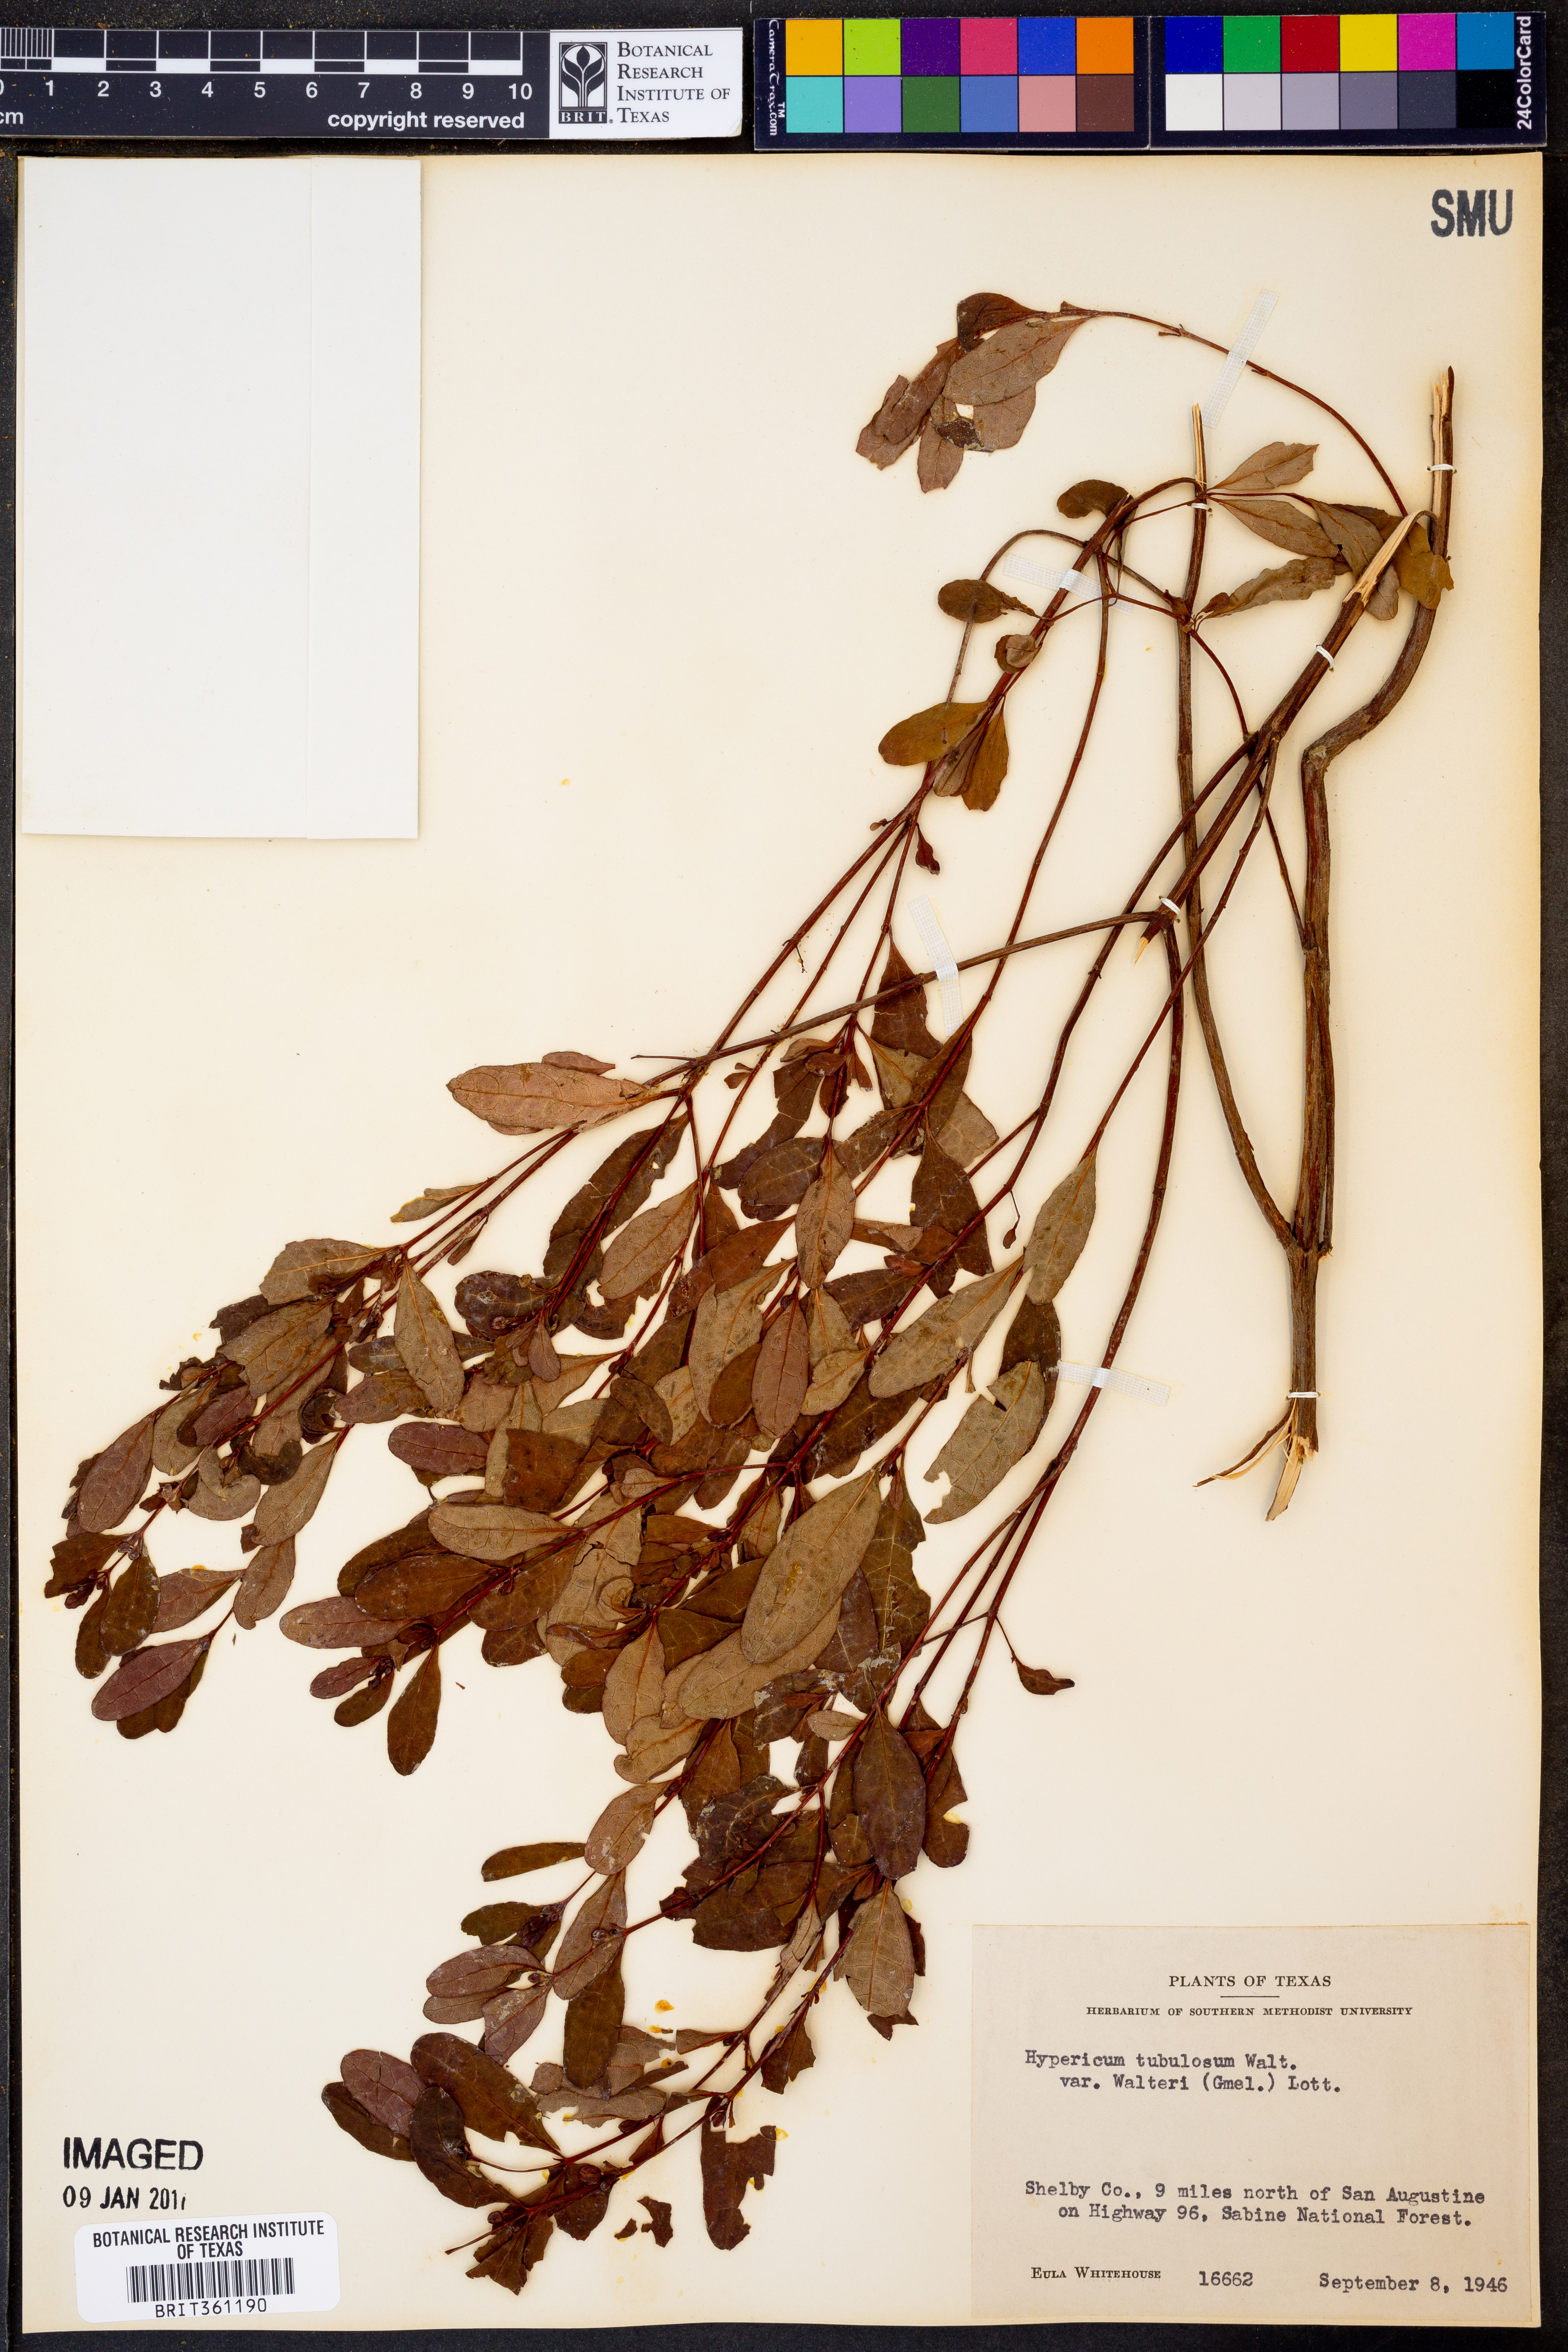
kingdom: Plantae
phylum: Tracheophyta
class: Magnoliopsida
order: Malpighiales
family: Hypericaceae
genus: Triadenum
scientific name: Triadenum walteri
